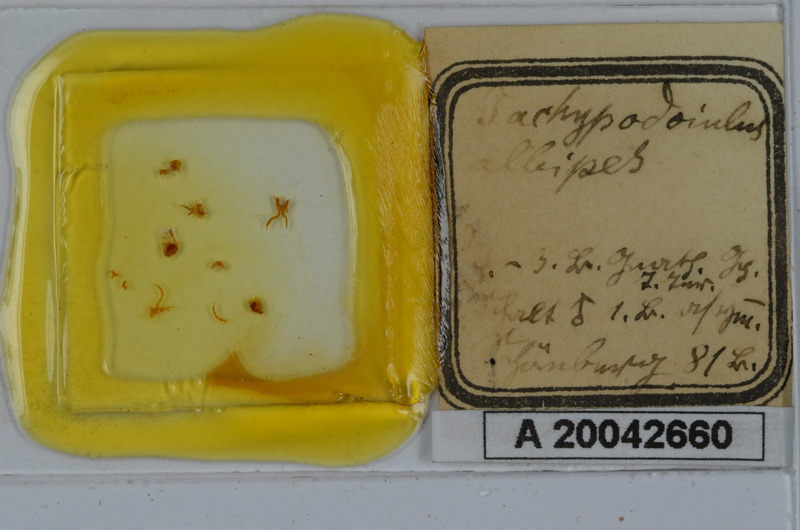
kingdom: Animalia
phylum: Arthropoda
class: Diplopoda
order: Julida
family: Julidae
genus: Tachypodoiulus
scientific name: Tachypodoiulus niger
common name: White-legged snake millipede
